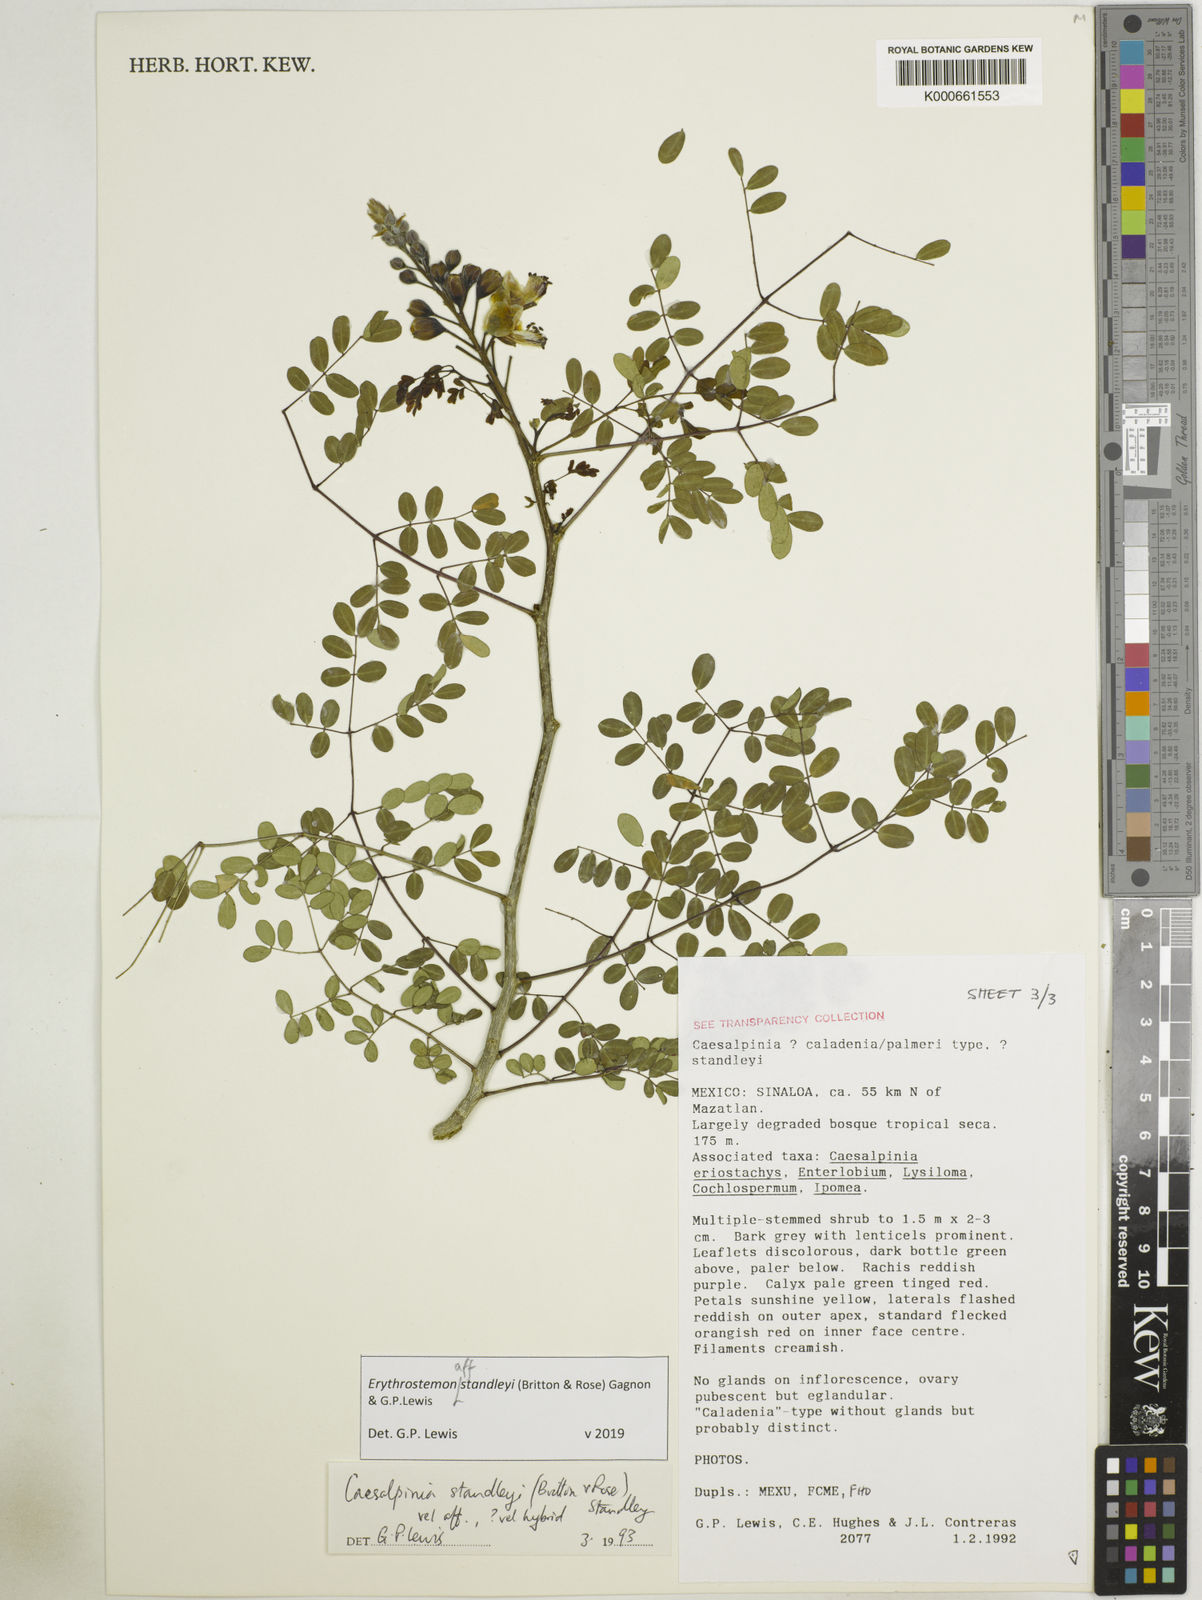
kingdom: Plantae
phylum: Tracheophyta
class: Magnoliopsida
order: Fabales
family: Fabaceae
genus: Erythrostemon
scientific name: Erythrostemon standleyi
